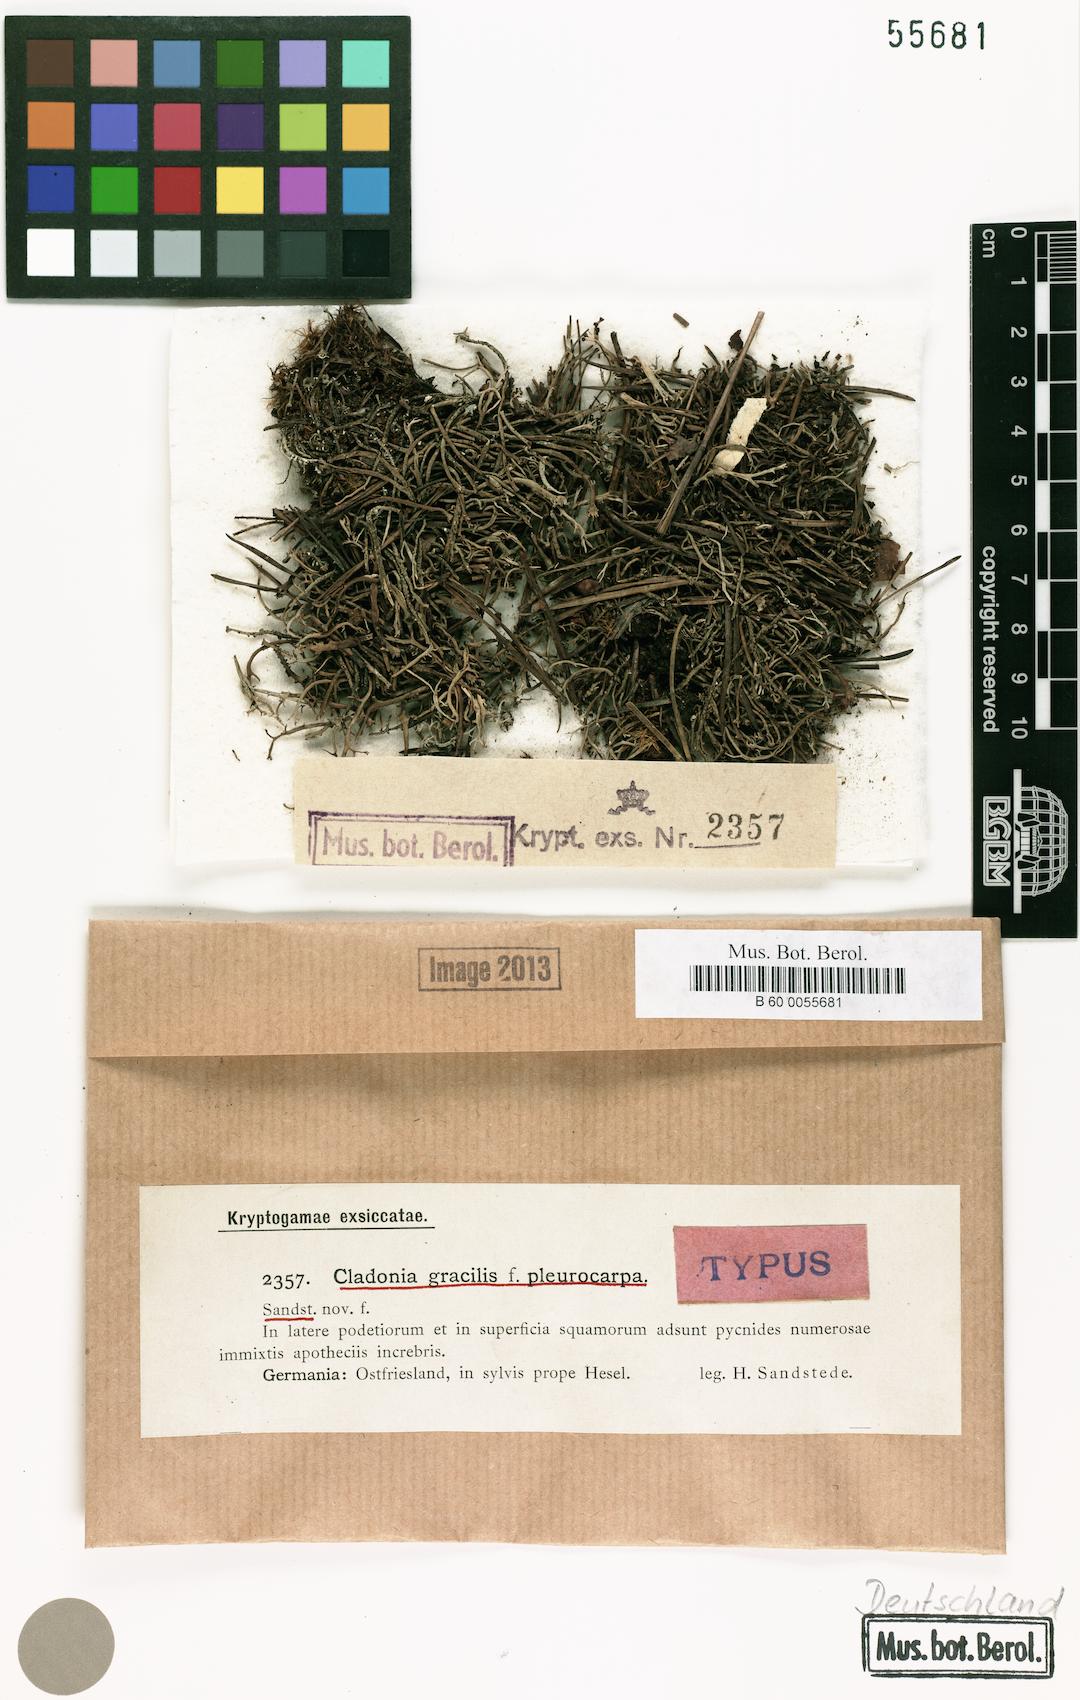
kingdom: Fungi
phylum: Ascomycota
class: Lecanoromycetes
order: Lecanorales
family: Cladoniaceae
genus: Cladonia
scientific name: Cladonia gracilis
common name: Smooth clad lichen
